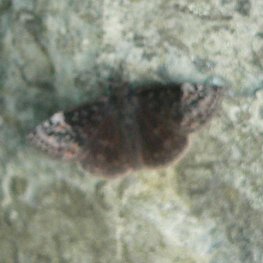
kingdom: Animalia
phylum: Arthropoda
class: Insecta
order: Lepidoptera
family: Hesperiidae
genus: Erynnis
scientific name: Erynnis icelus
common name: Dreamy Duskywing
